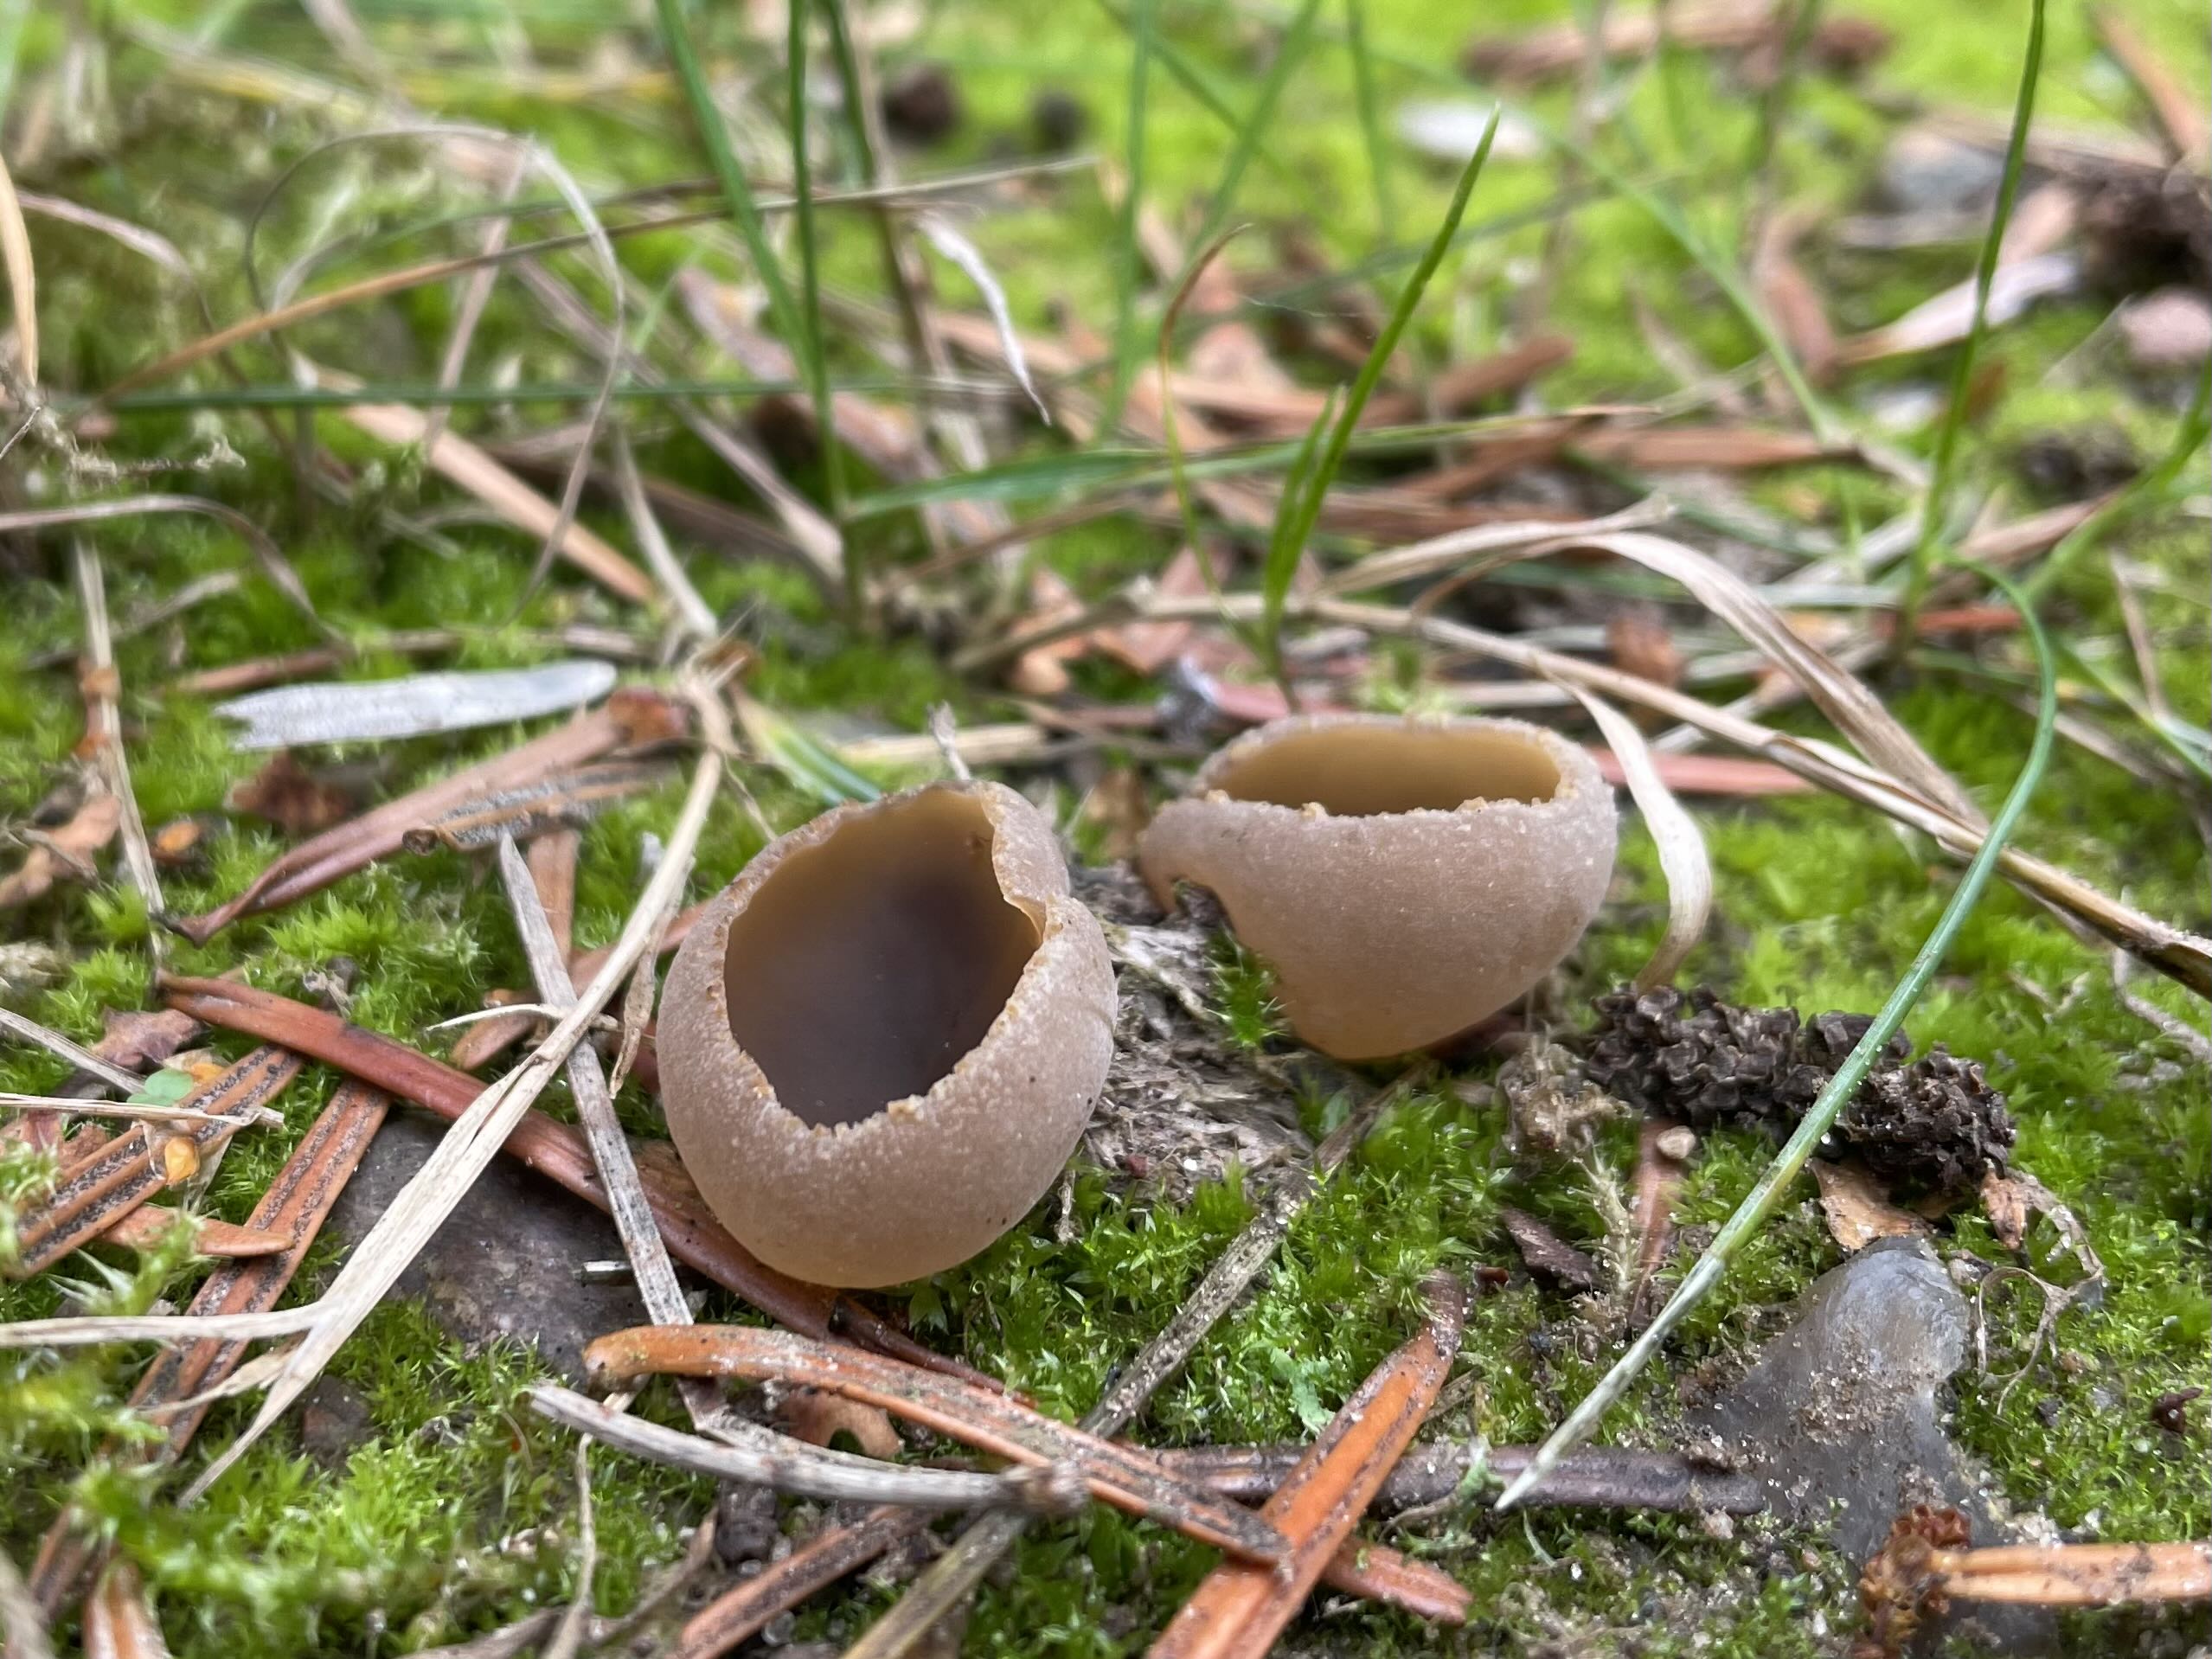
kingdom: Fungi
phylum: Ascomycota
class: Pezizomycetes
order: Pezizales
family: Pezizaceae
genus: Peziza
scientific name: Peziza
